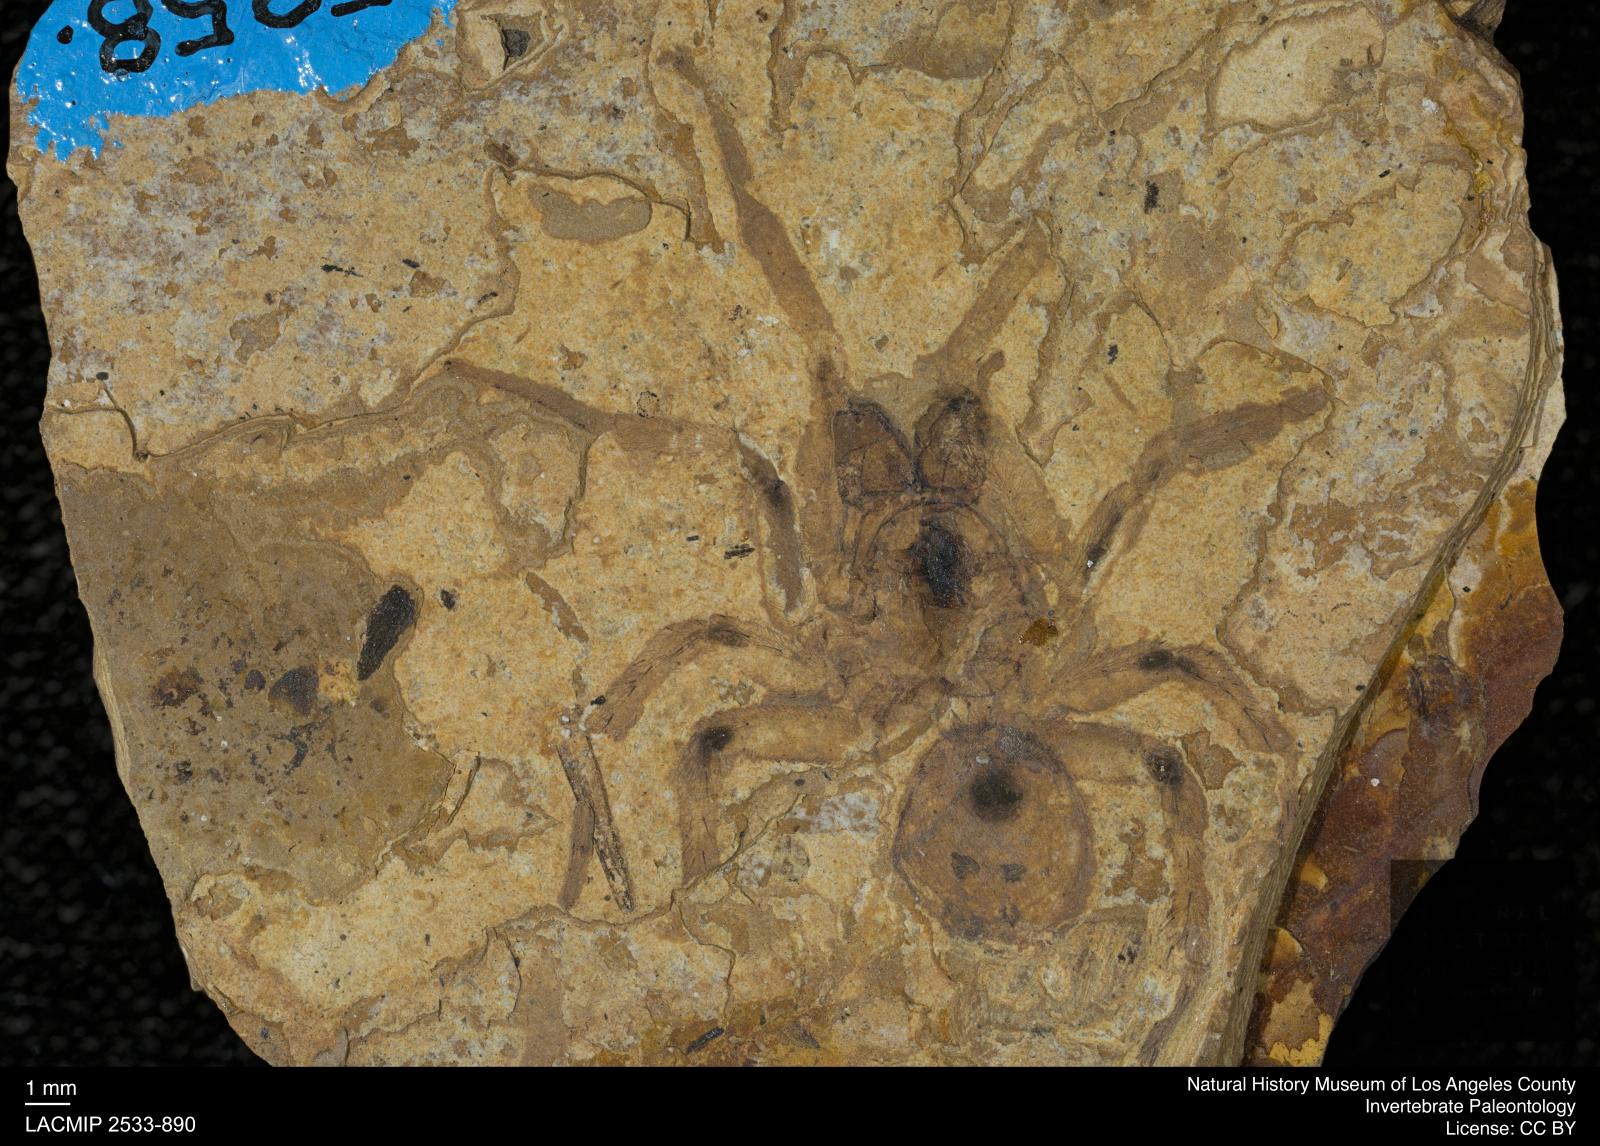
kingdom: Animalia
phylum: Arthropoda
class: Arachnida
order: Araneae
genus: Elvina
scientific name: Elvina Argyroneta antiqua
